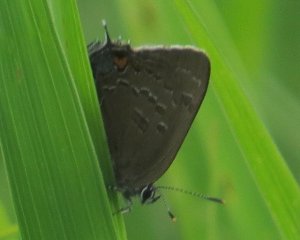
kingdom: Animalia
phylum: Arthropoda
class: Insecta
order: Lepidoptera
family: Lycaenidae
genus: Satyrium
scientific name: Satyrium calanus
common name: Banded Hairstreak
